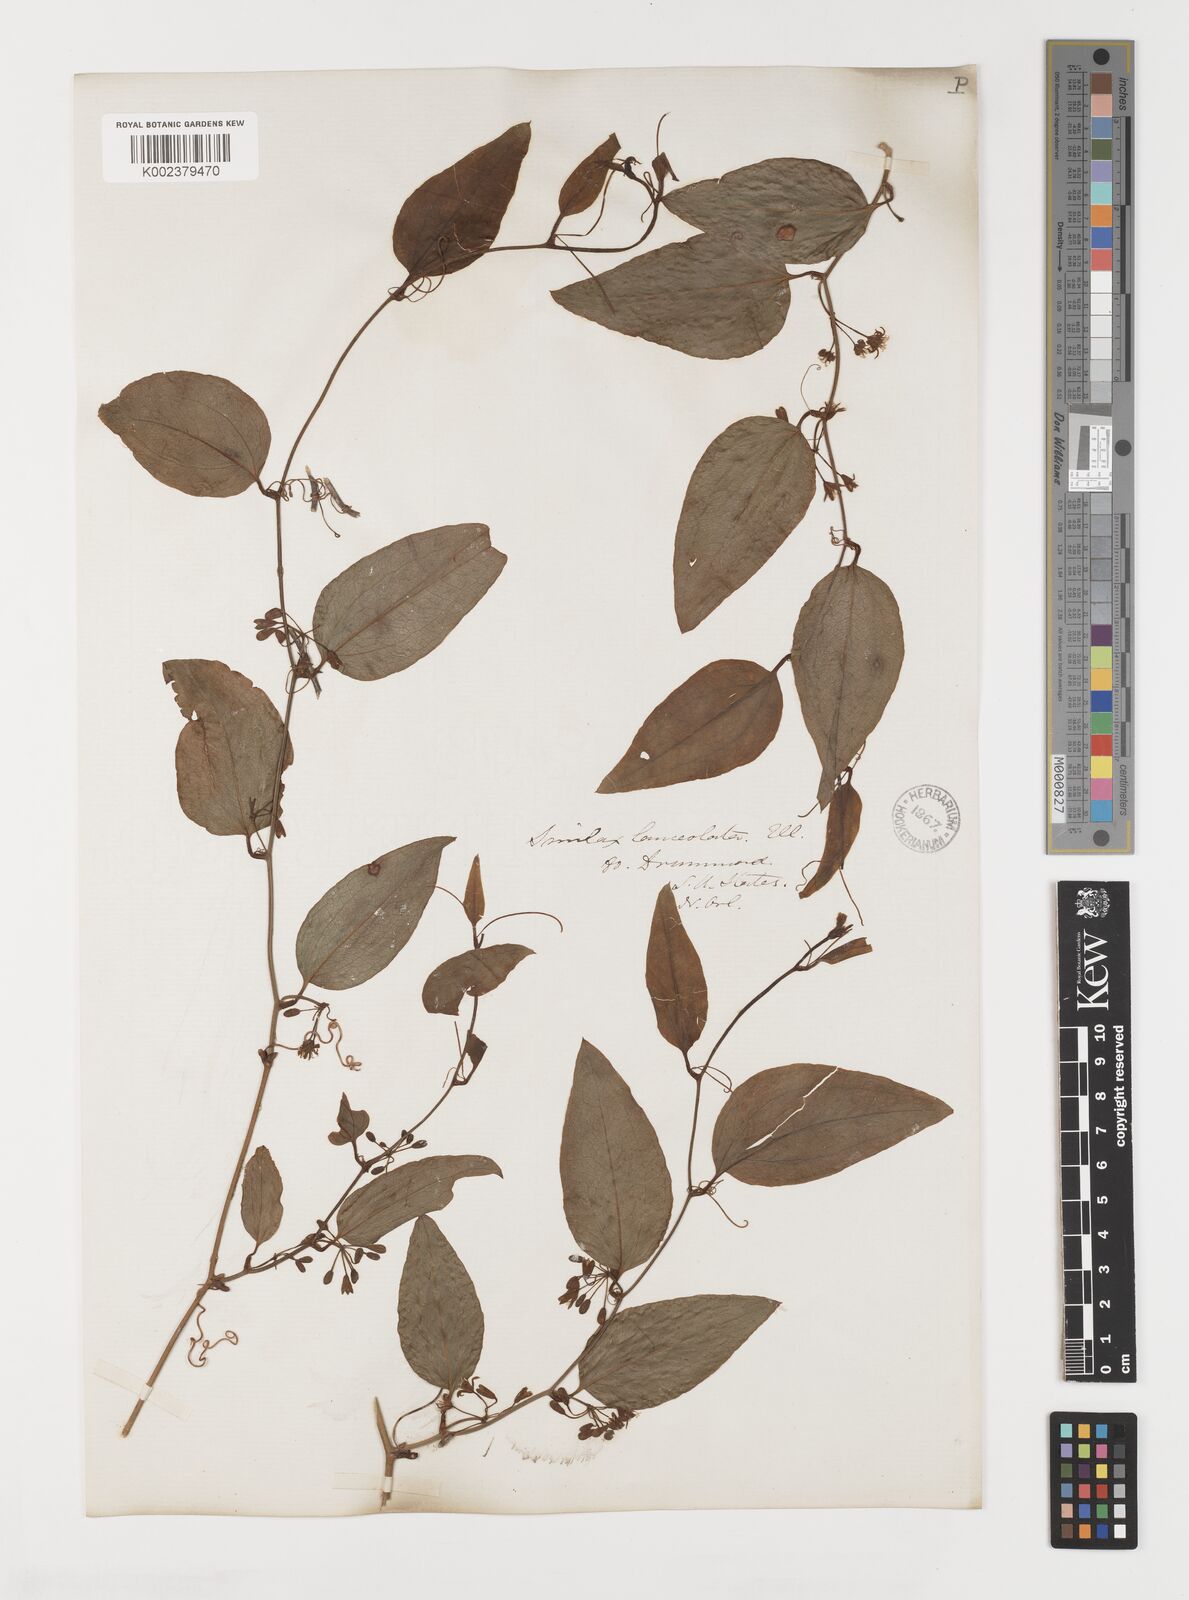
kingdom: Plantae
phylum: Tracheophyta
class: Liliopsida
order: Liliales
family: Smilacaceae
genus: Smilax
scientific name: Smilax
